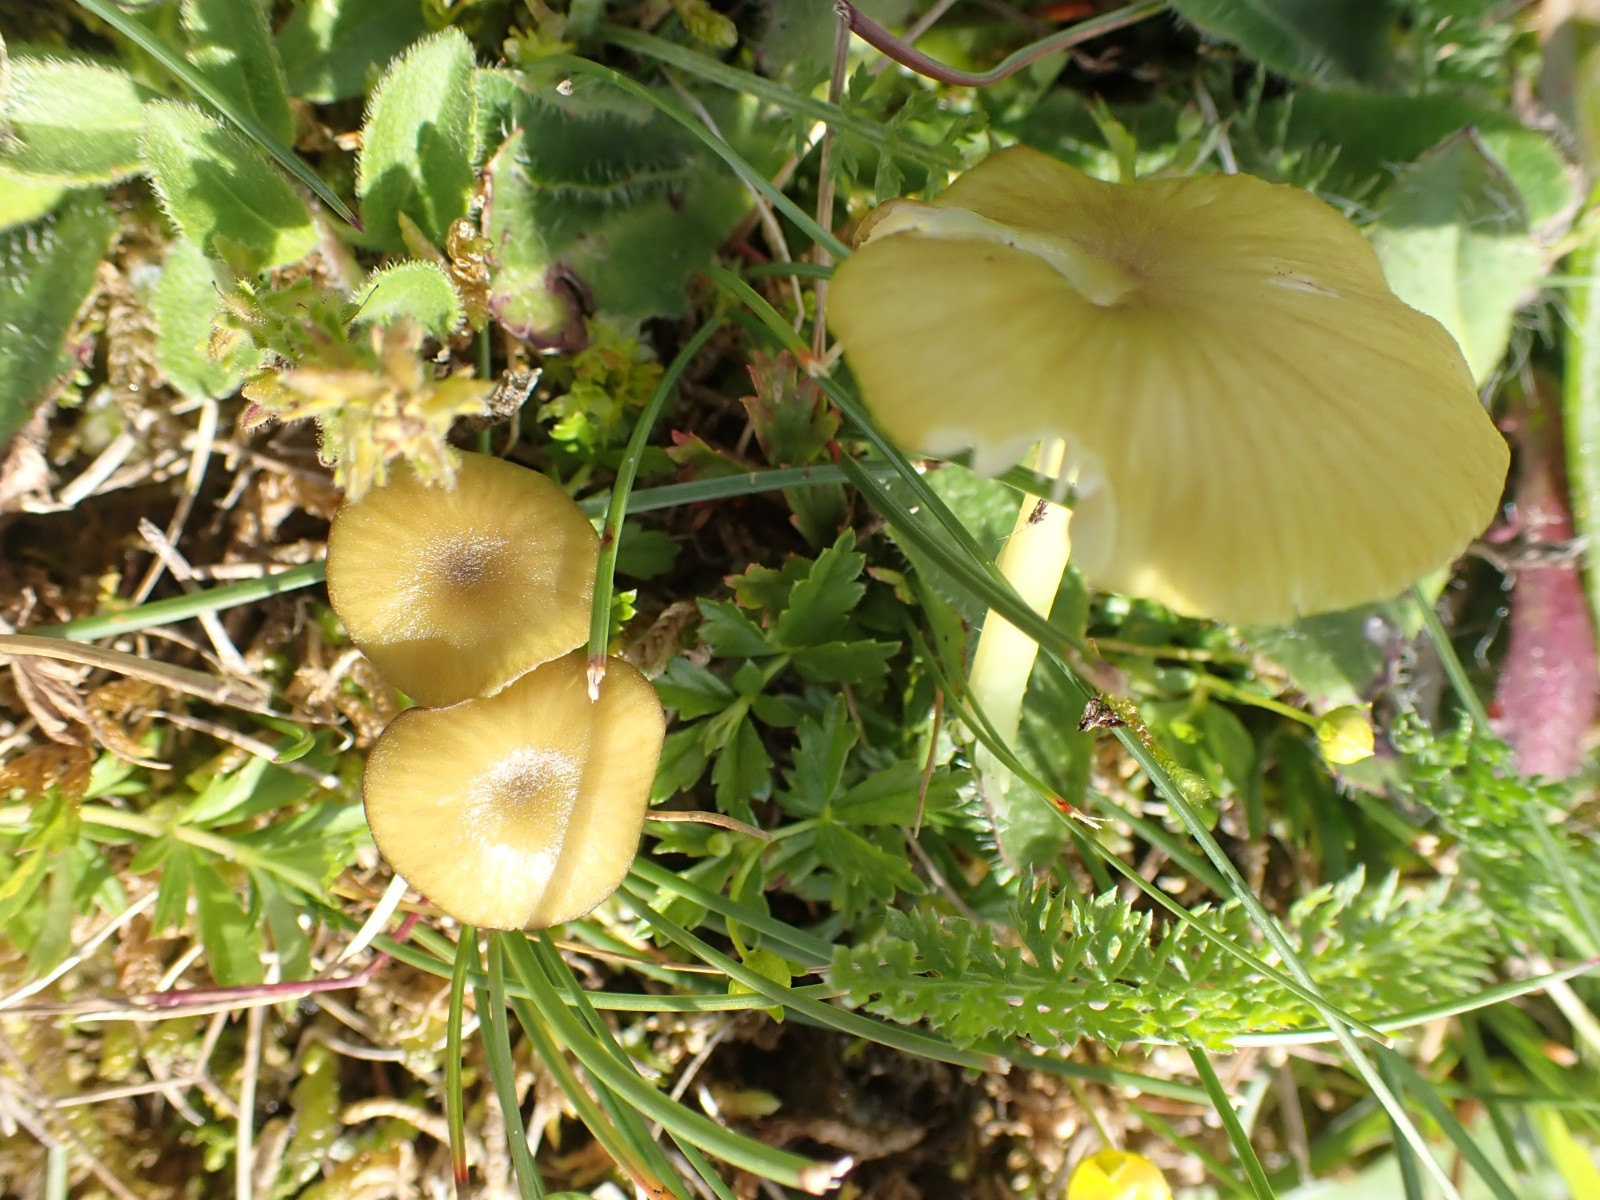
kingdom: Fungi
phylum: Basidiomycota
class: Agaricomycetes
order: Agaricales
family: Entolomataceae
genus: Entoloma
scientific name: Entoloma incanum
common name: grøngul rødblad
